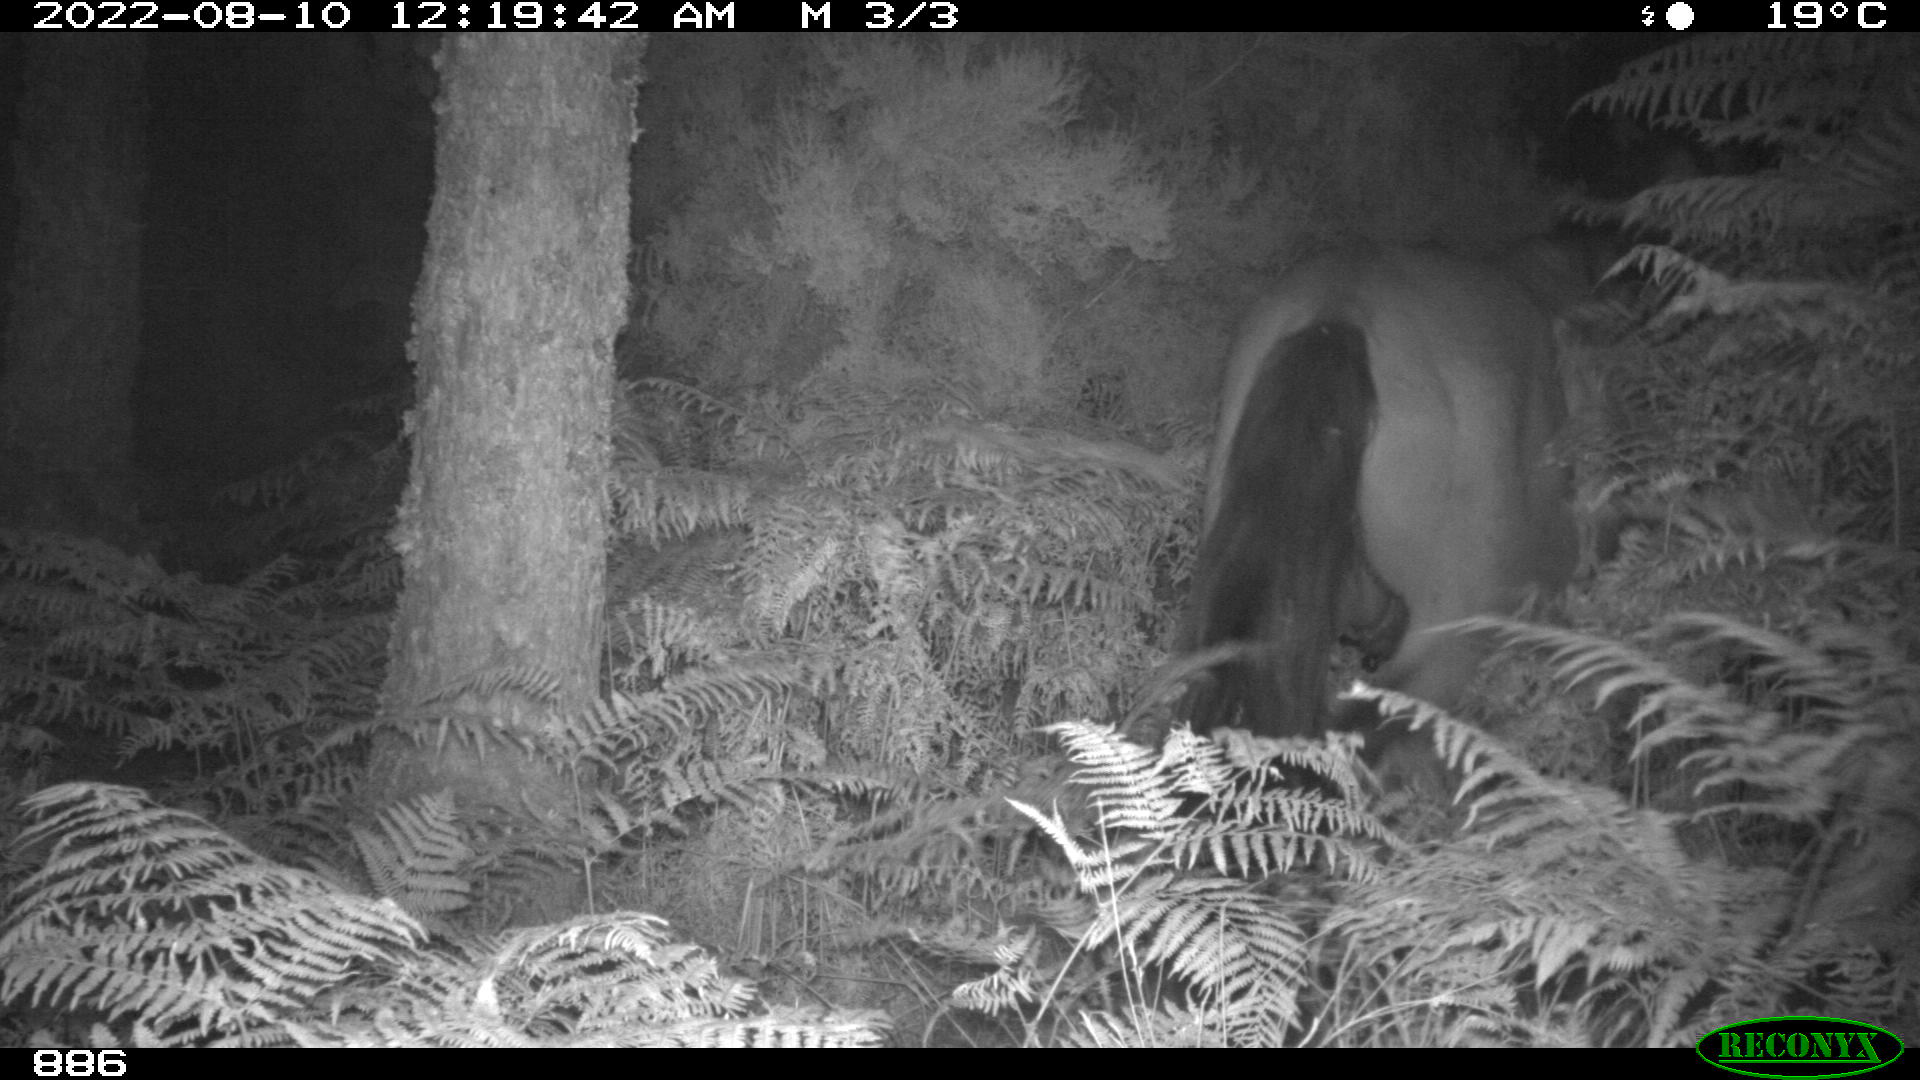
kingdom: Animalia
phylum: Chordata
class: Mammalia
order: Perissodactyla
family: Equidae
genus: Equus
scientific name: Equus caballus
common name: Horse
